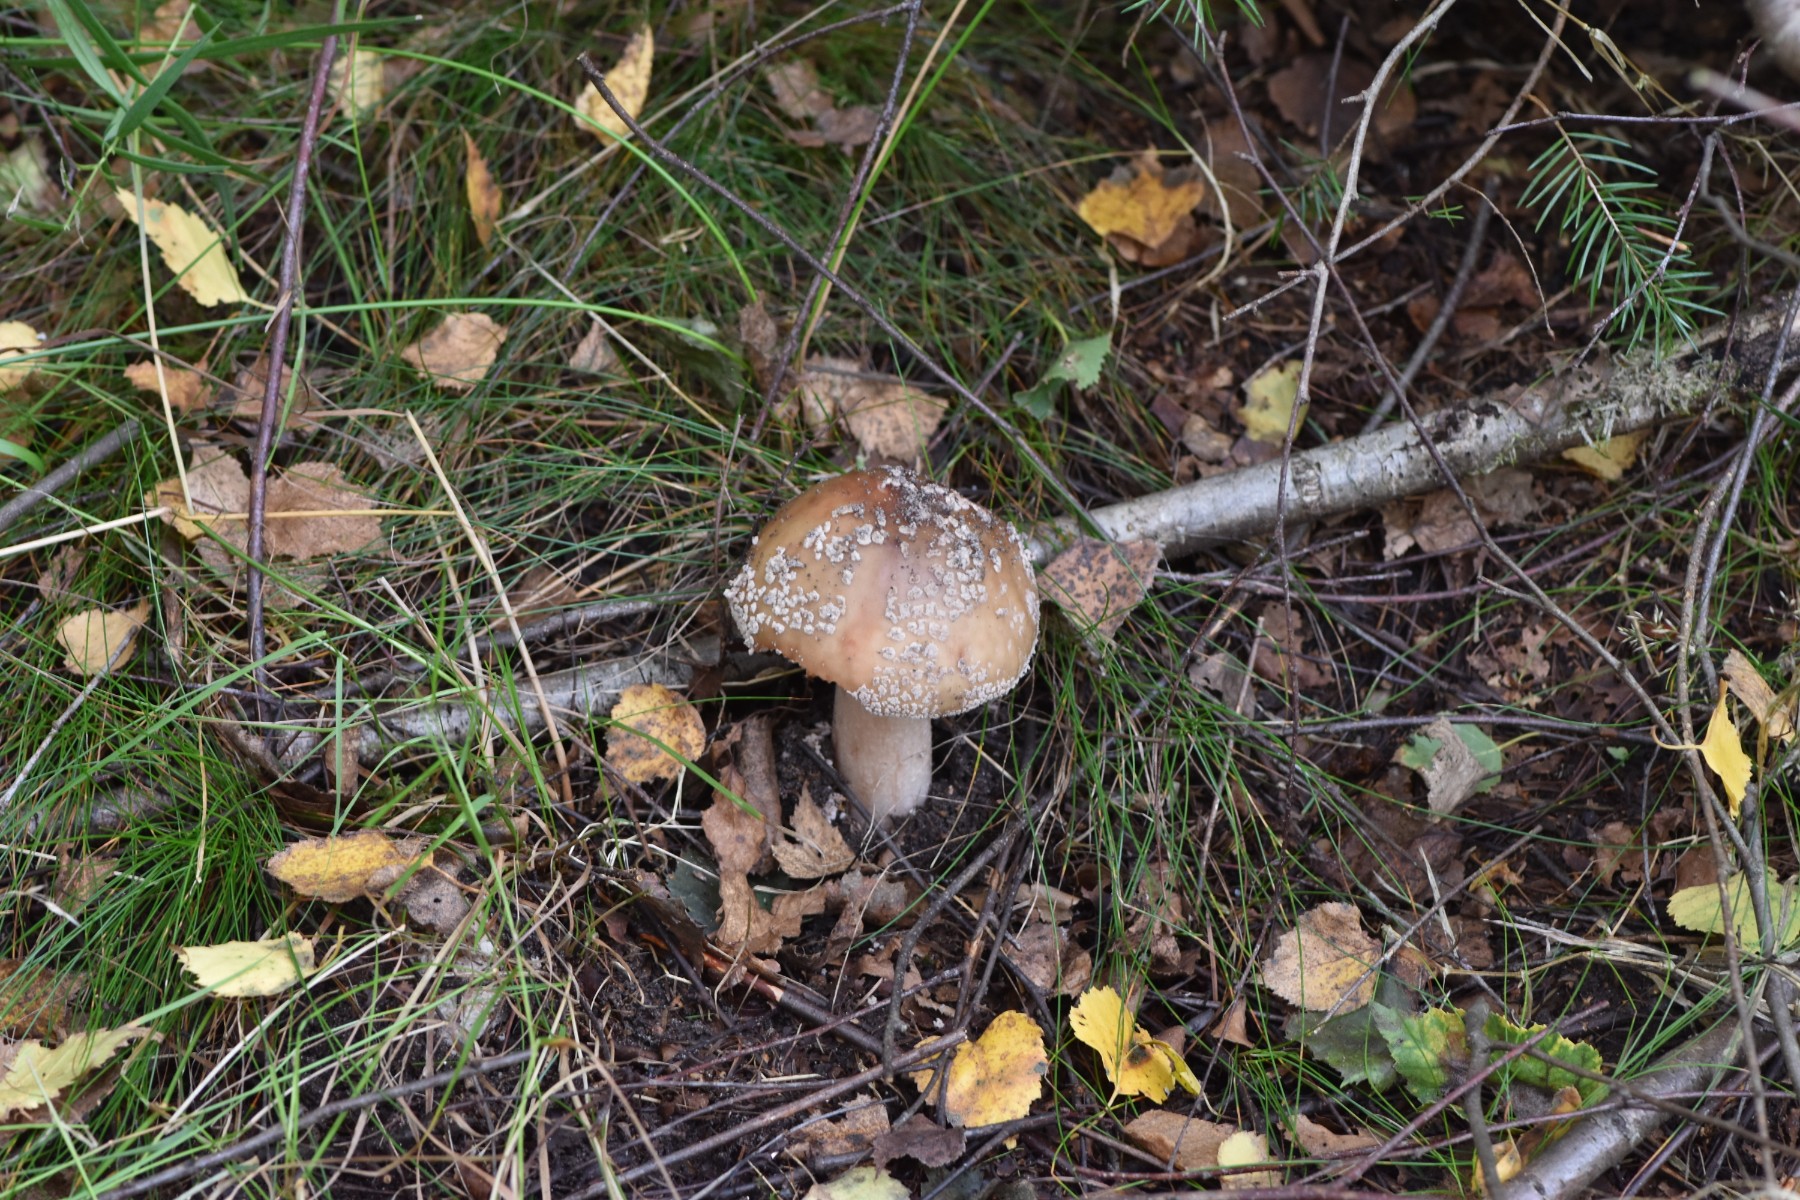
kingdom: Fungi
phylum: Basidiomycota
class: Agaricomycetes
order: Agaricales
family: Amanitaceae
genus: Amanita
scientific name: Amanita rubescens
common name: rødmende fluesvamp
